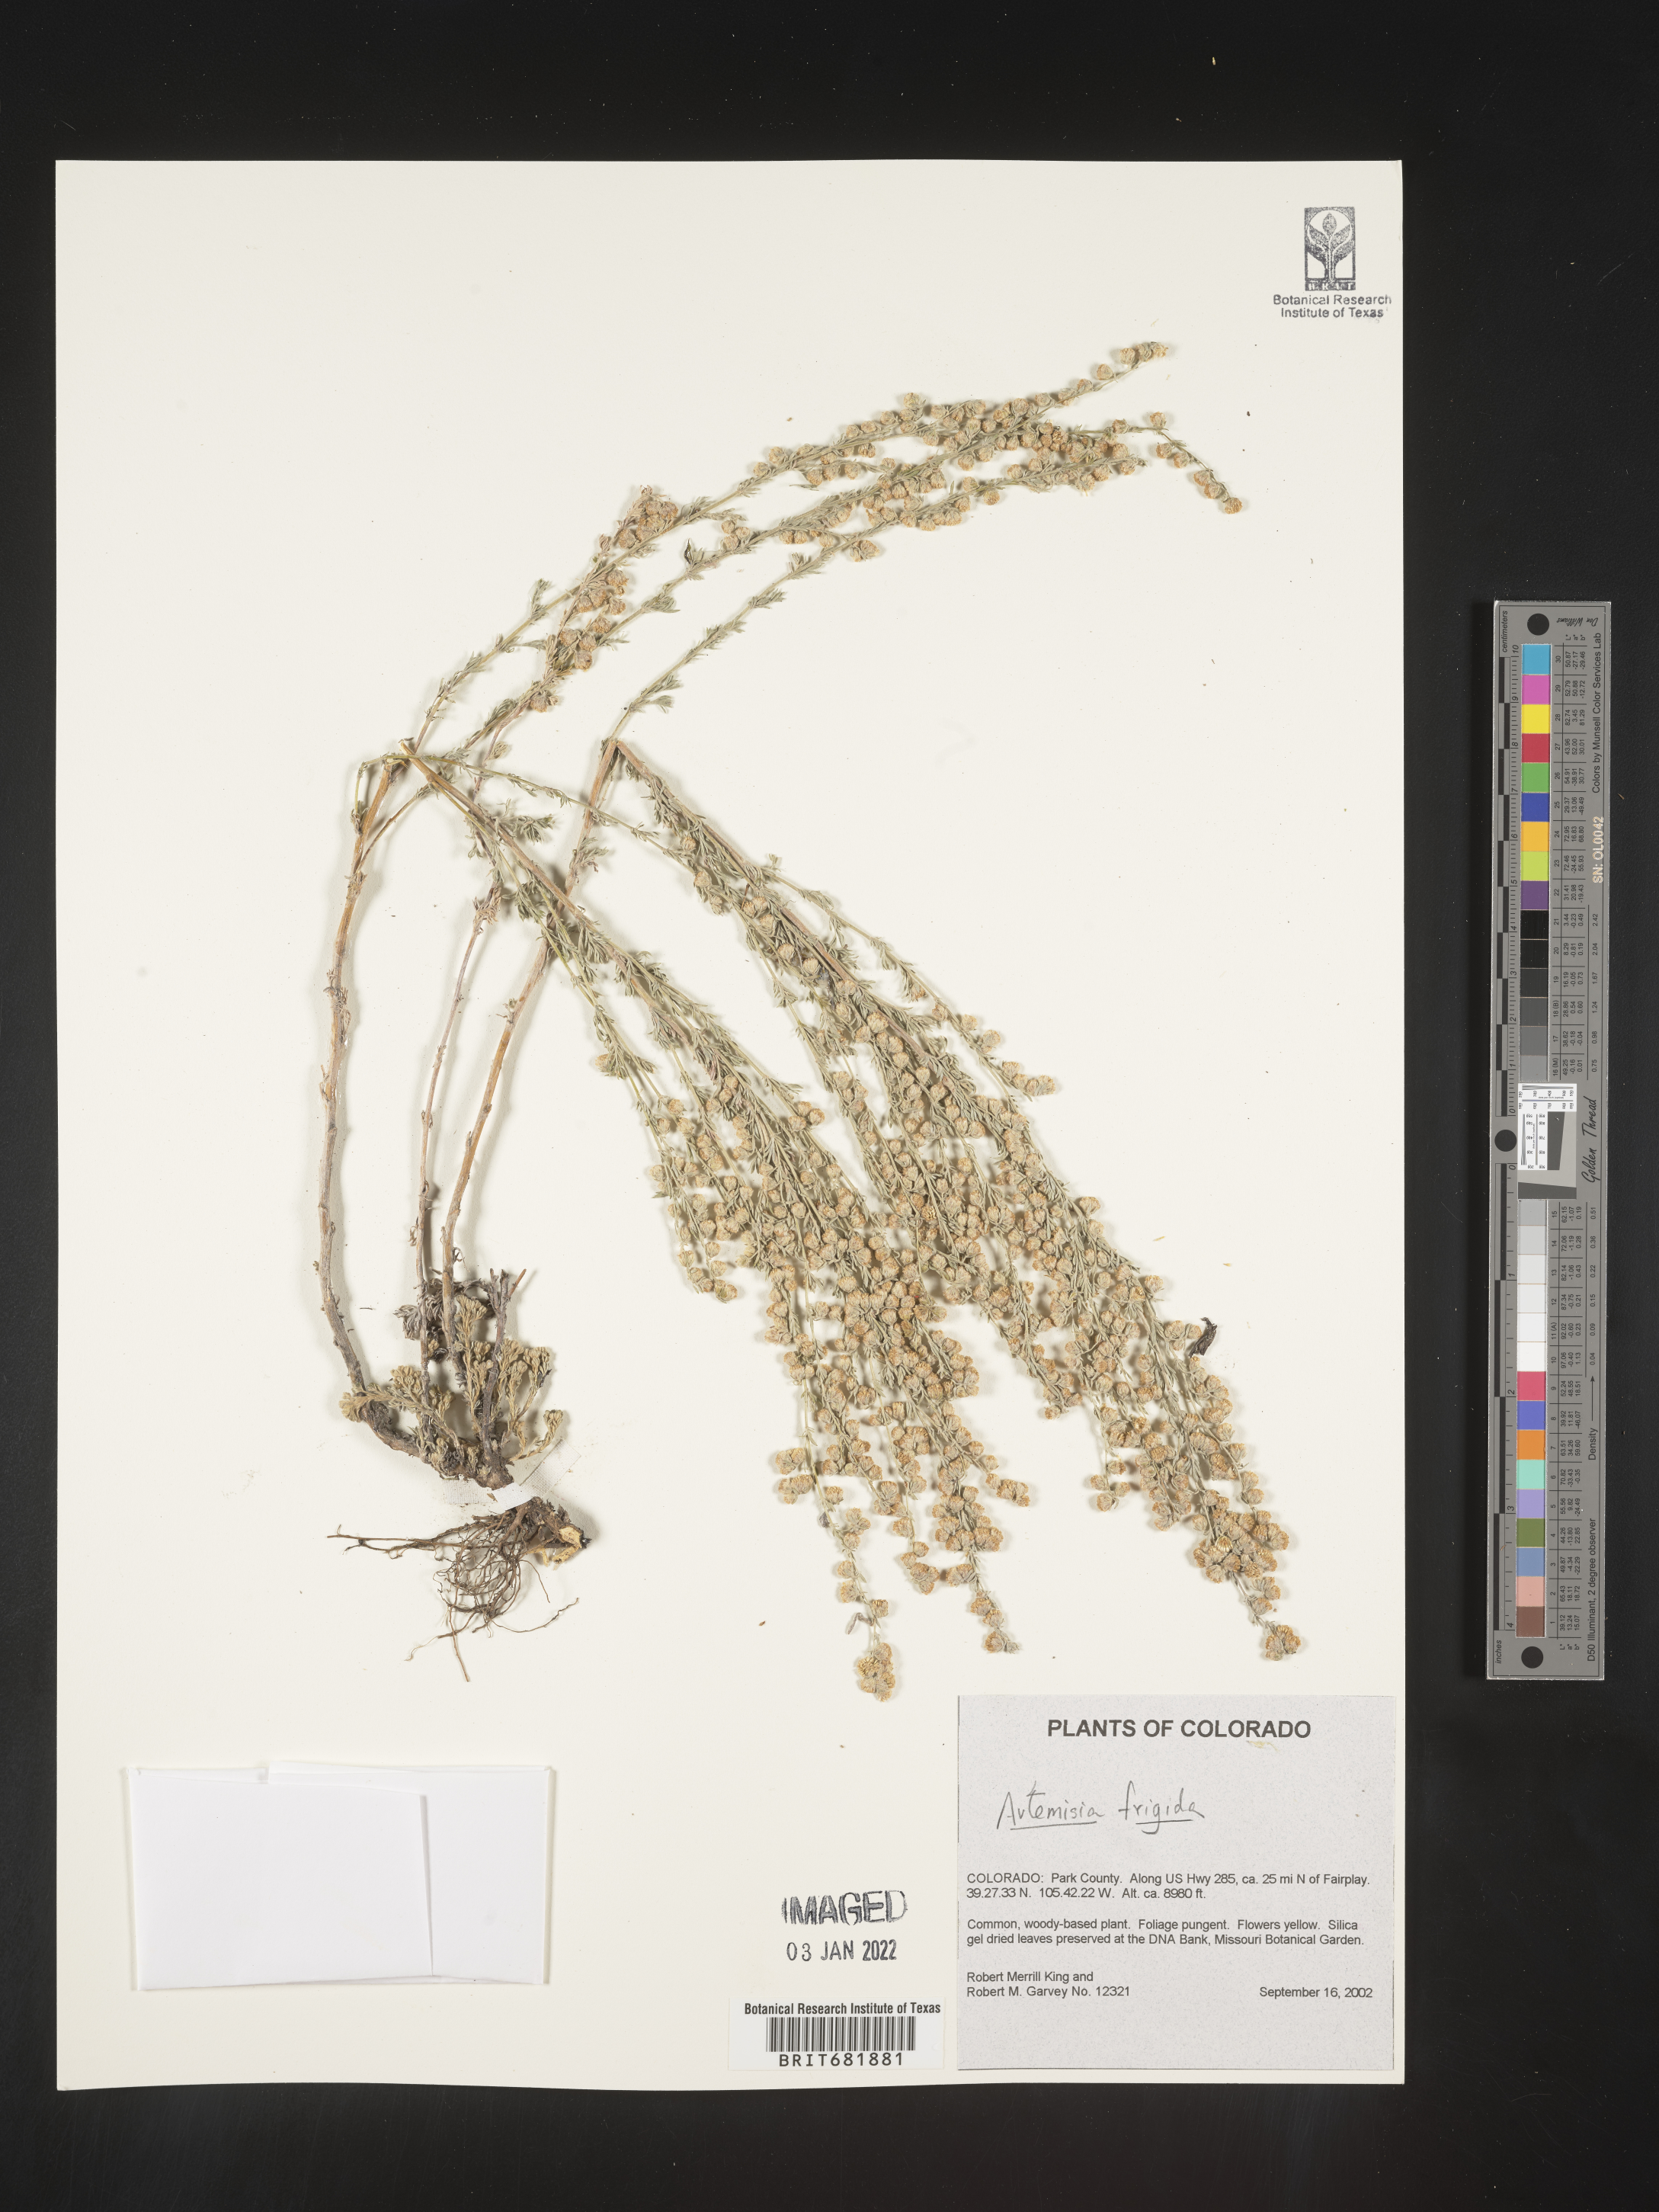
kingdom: Plantae
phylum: Tracheophyta
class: Magnoliopsida
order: Asterales
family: Asteraceae
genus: Artemisia
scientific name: Artemisia frigida
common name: Prairie sagewort
